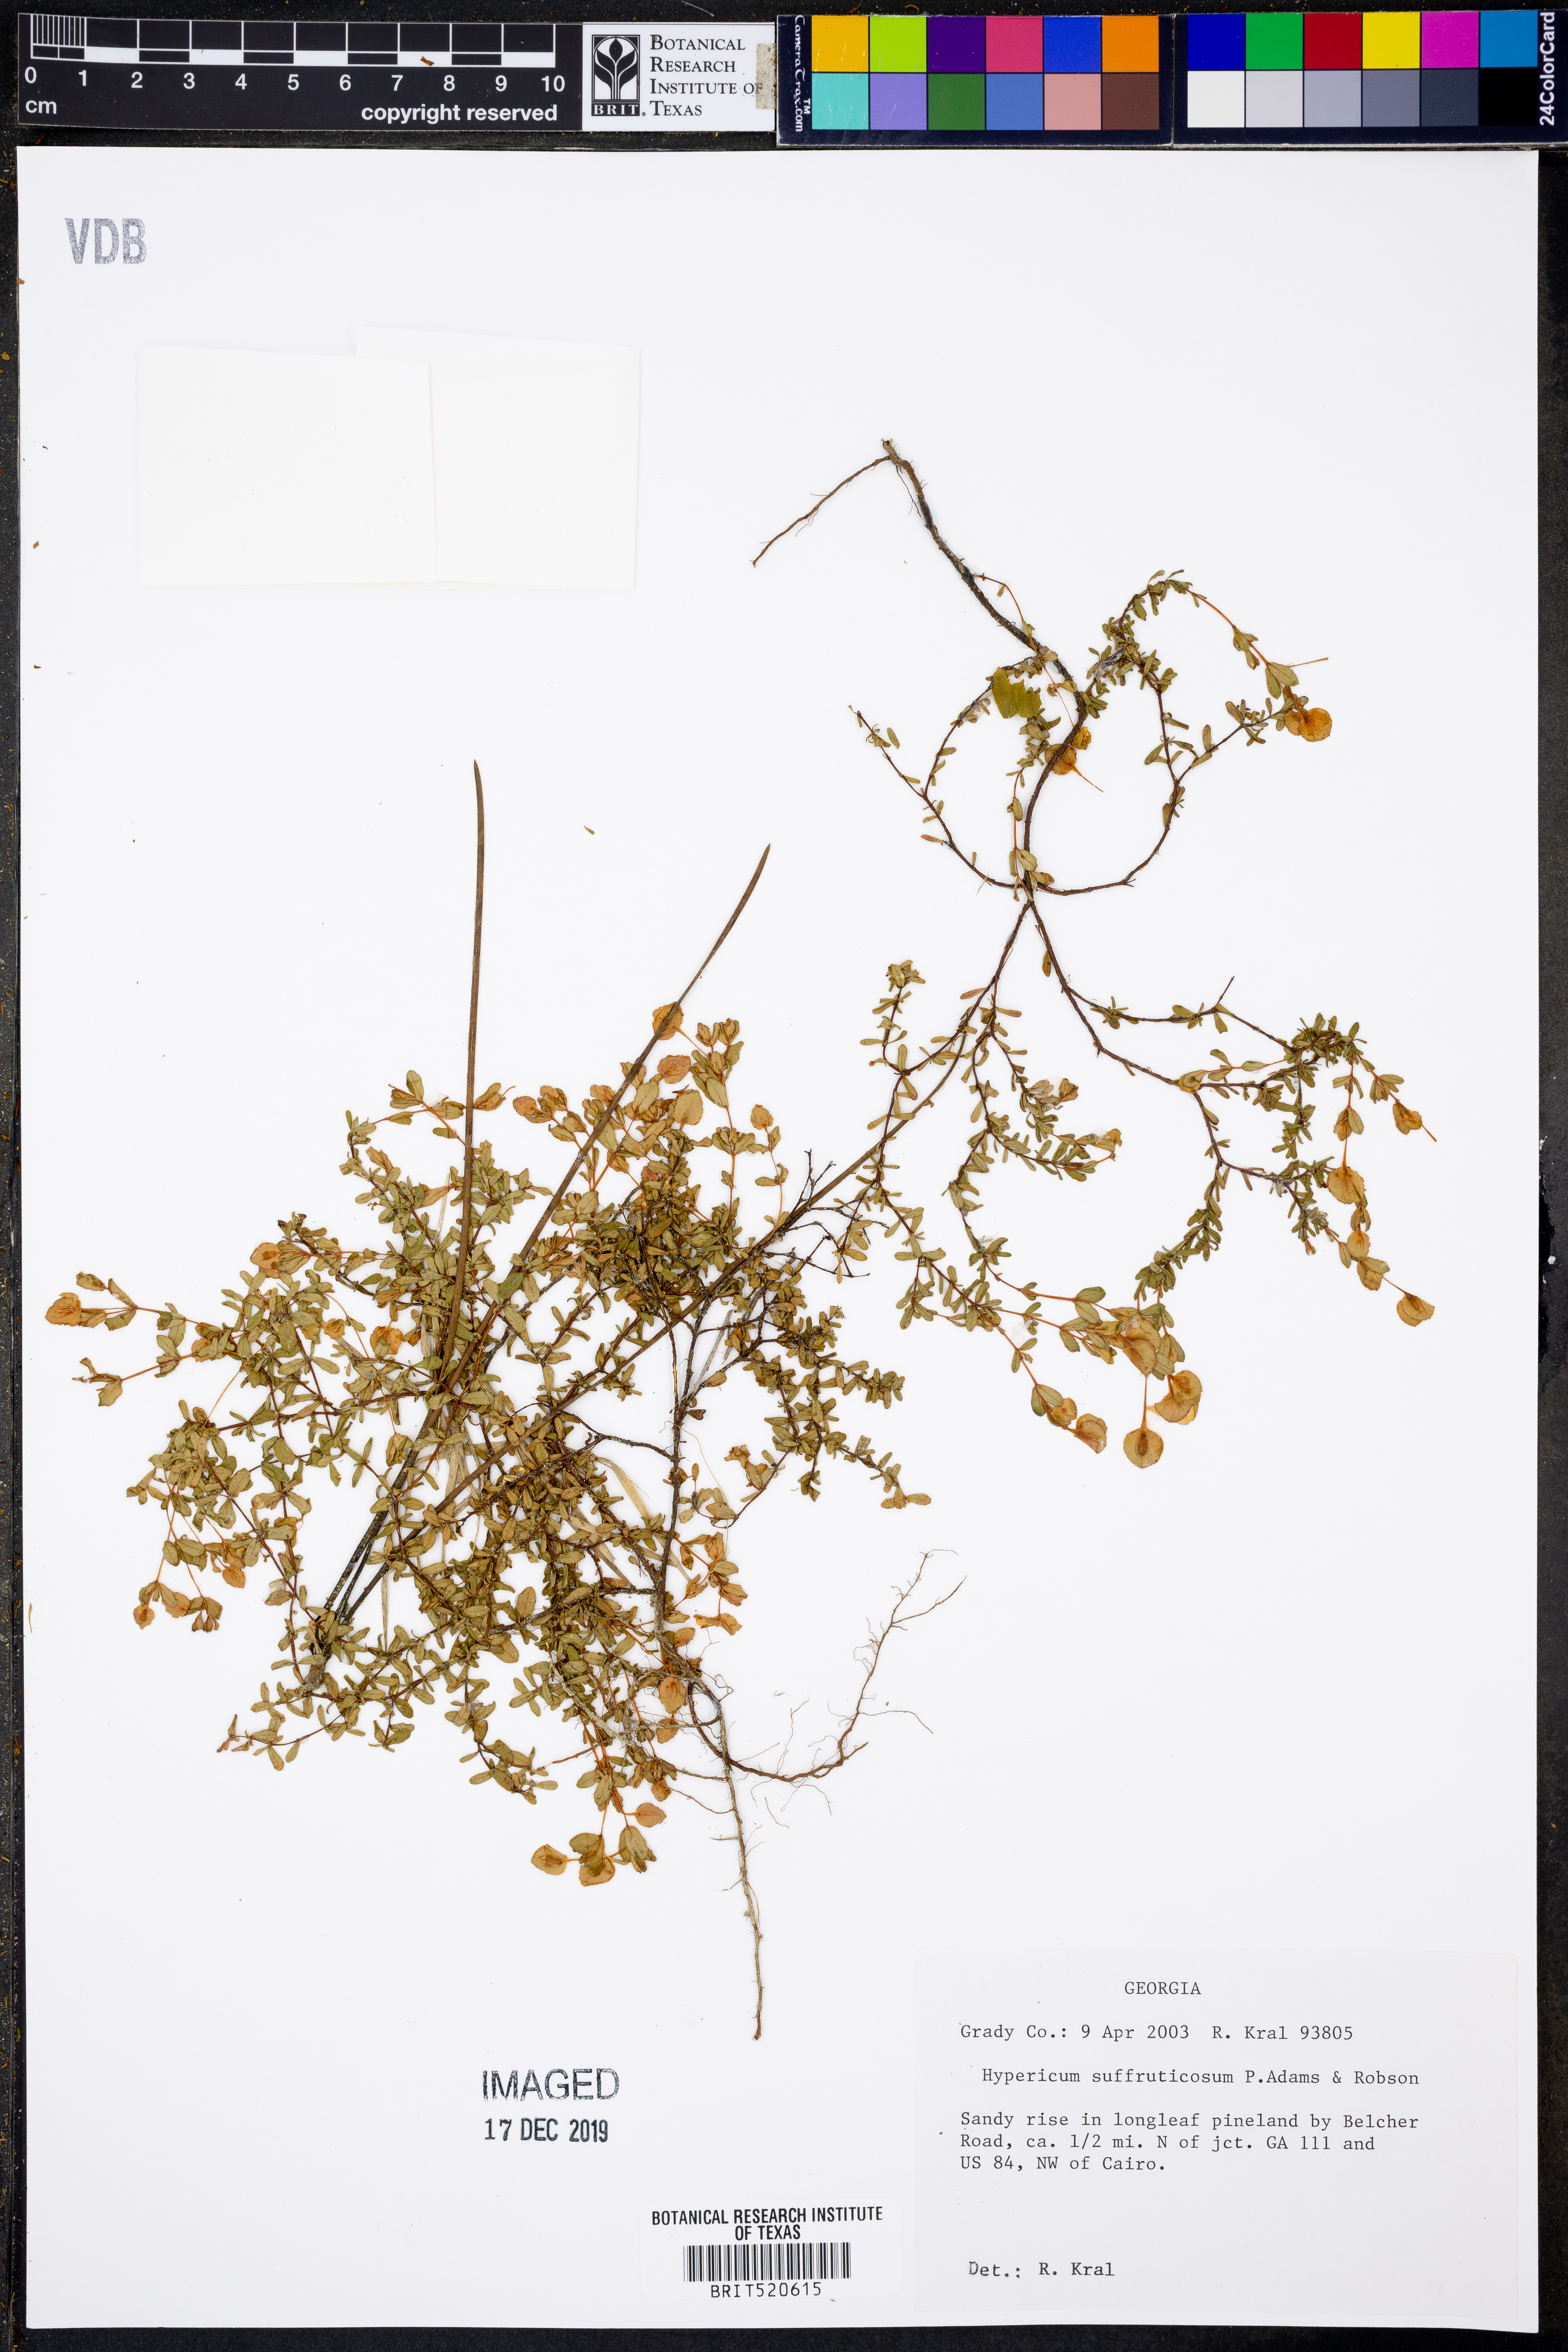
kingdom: Plantae
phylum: Tracheophyta
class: Magnoliopsida
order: Malpighiales
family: Hypericaceae
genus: Hypericum
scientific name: Hypericum suffruticosum
